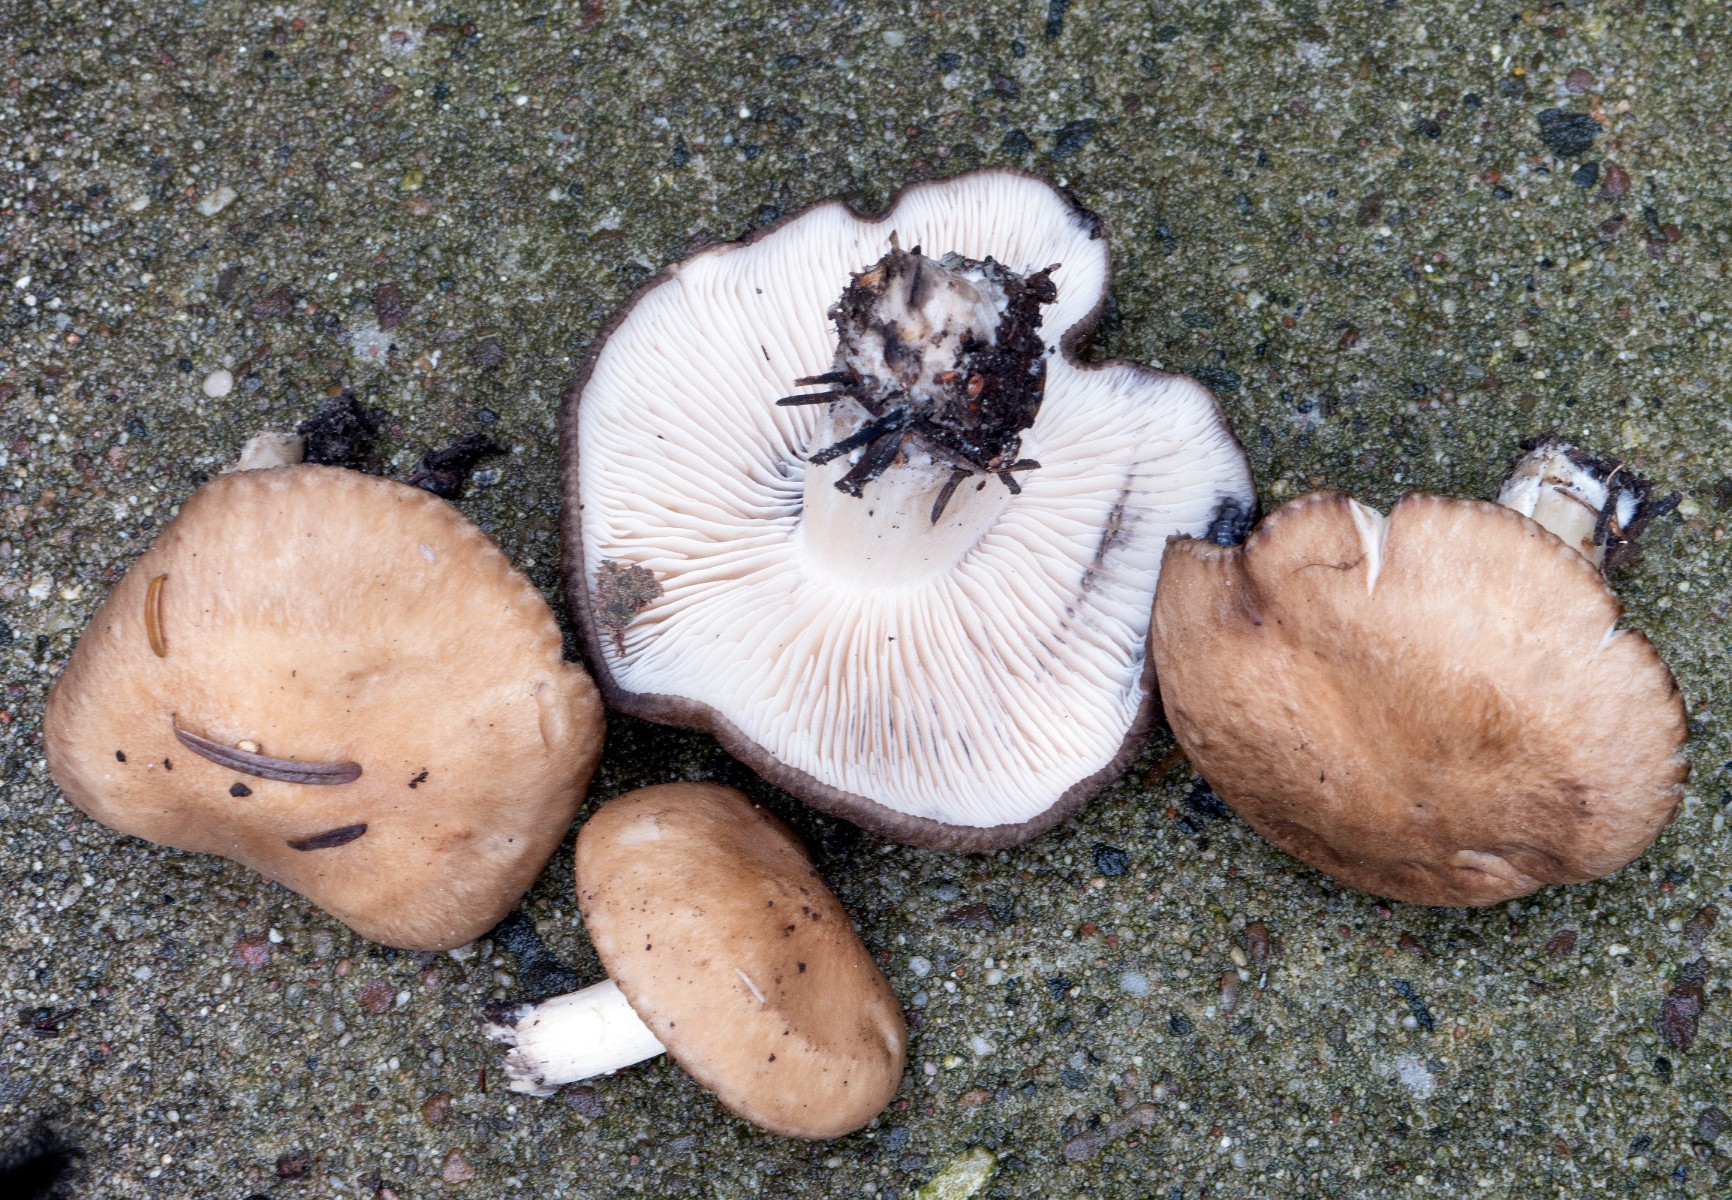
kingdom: Fungi
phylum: Basidiomycota
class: Agaricomycetes
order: Agaricales
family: Lyophyllaceae
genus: Lyophyllum
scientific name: Lyophyllum paelochroum
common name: blånende gråblad
